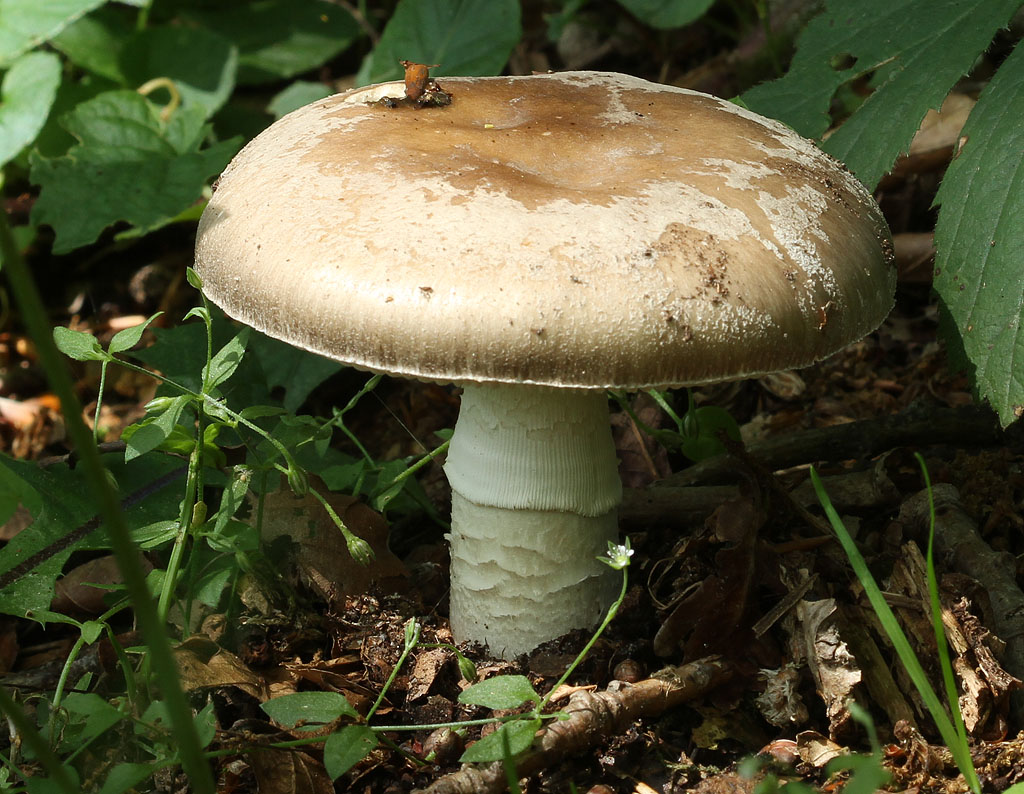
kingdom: Fungi
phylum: Basidiomycota
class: Agaricomycetes
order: Agaricales
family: Amanitaceae
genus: Amanita
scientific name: Amanita
